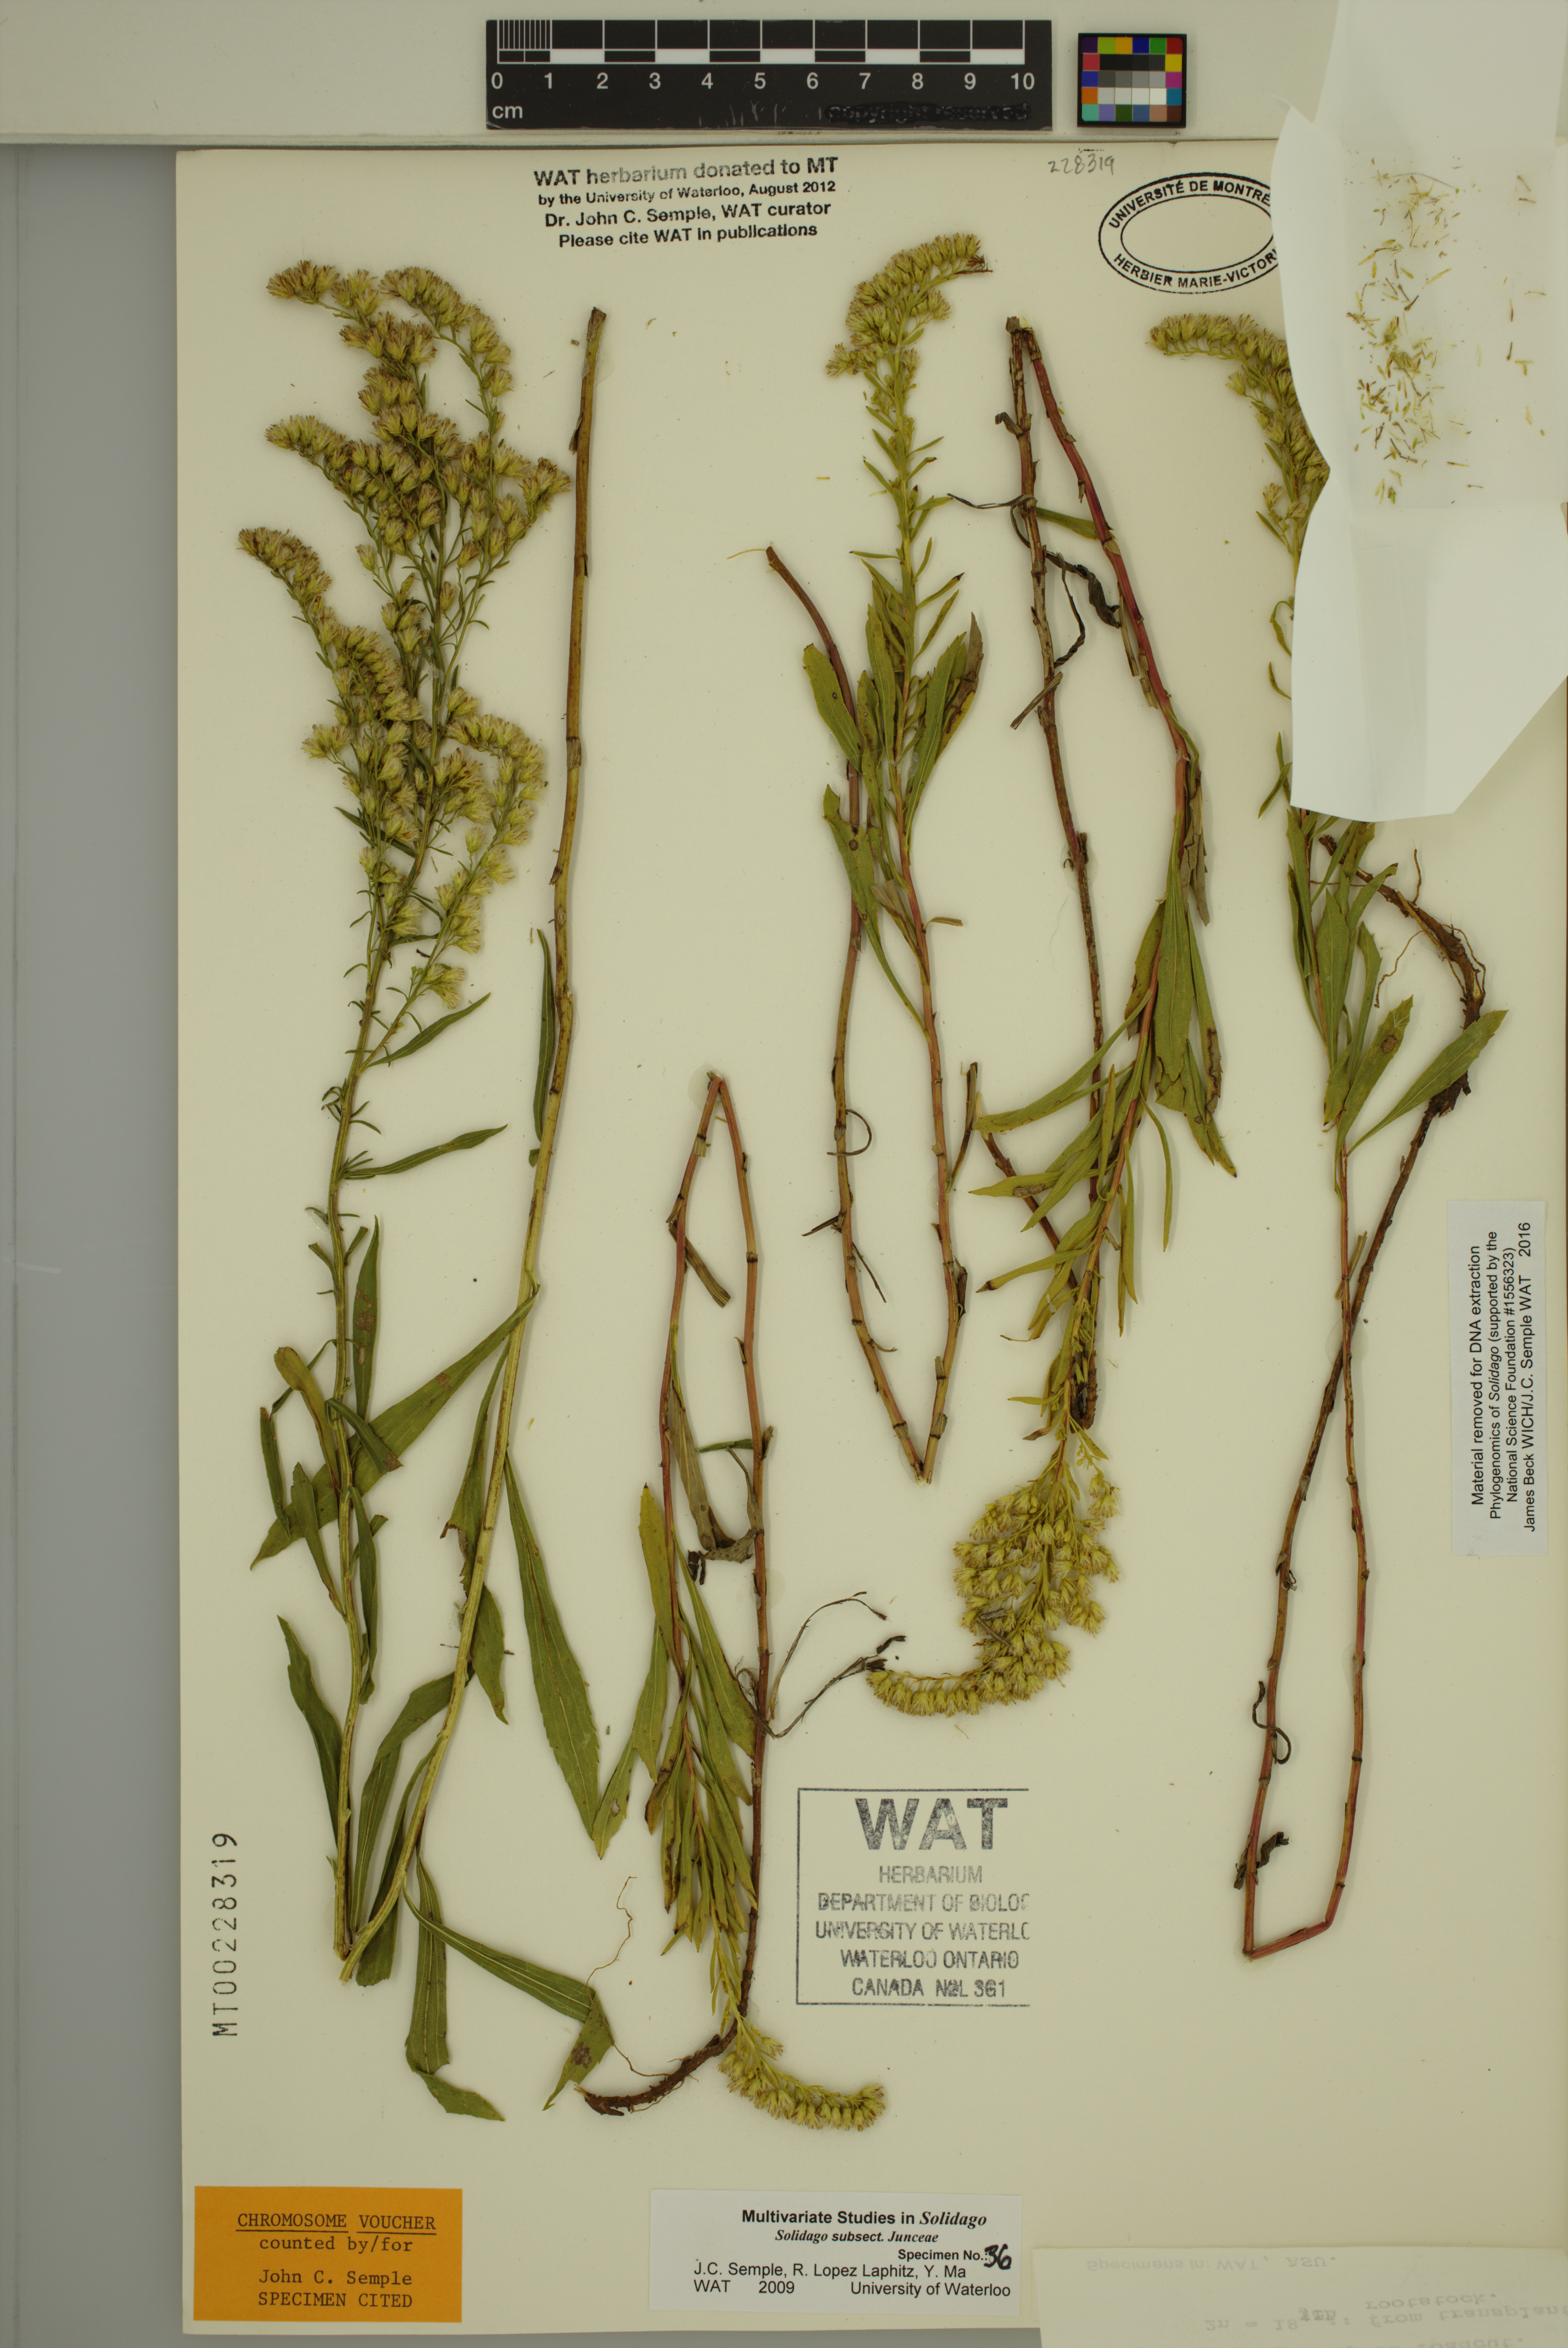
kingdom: Plantae
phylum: Tracheophyta
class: Magnoliopsida
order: Asterales
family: Asteraceae
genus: Solidago
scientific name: Solidago missouriensis
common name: Prairie goldenrod
